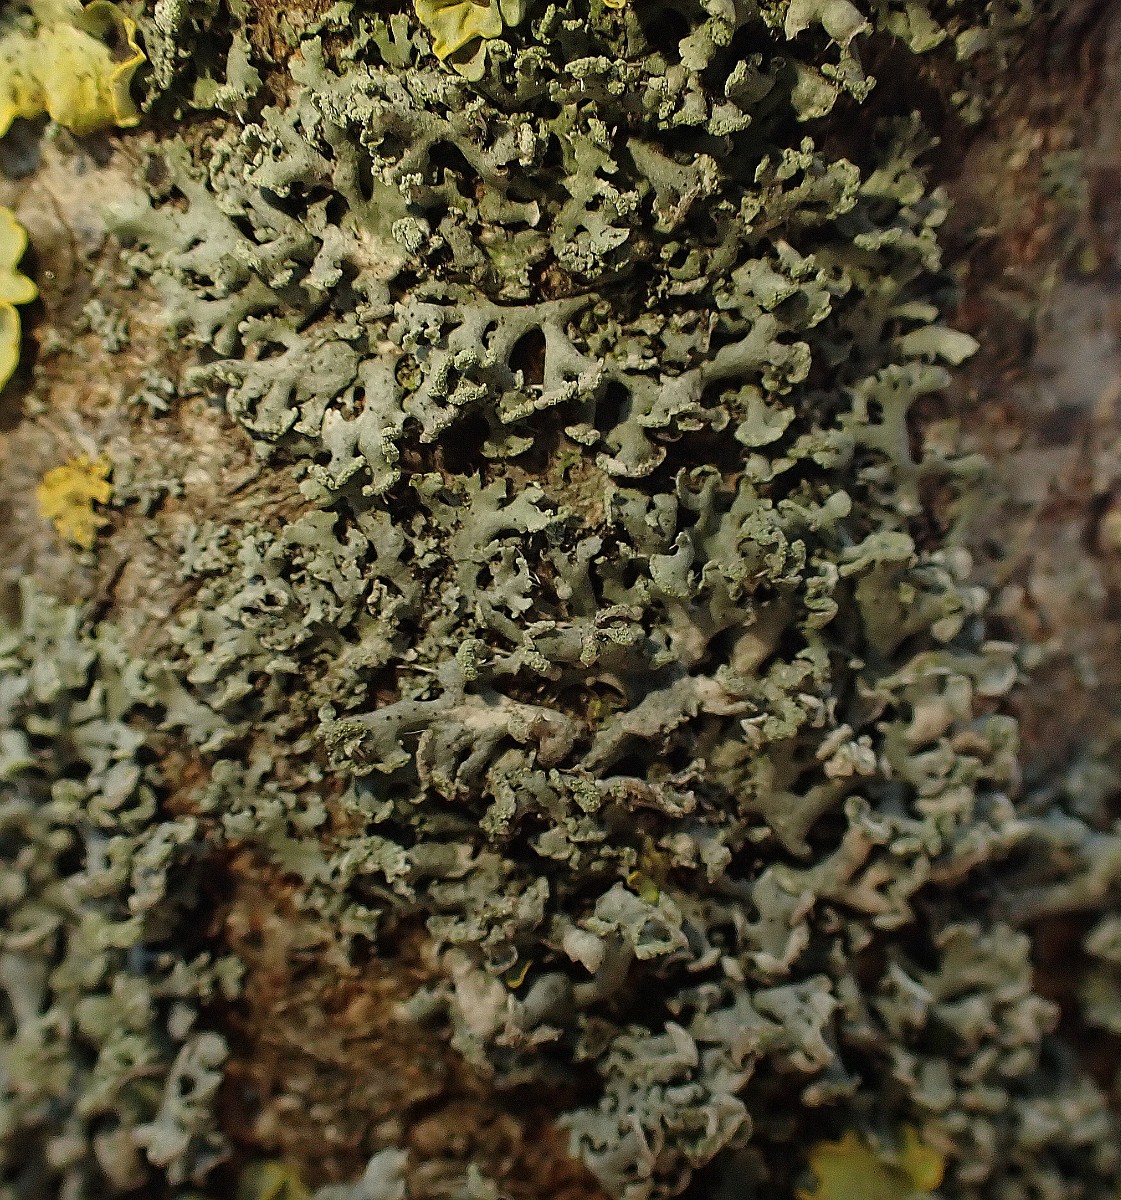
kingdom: Fungi
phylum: Ascomycota
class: Lecanoromycetes
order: Caliciales
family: Physciaceae
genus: Physcia
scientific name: Physcia tenella
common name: spæd rosetlav
